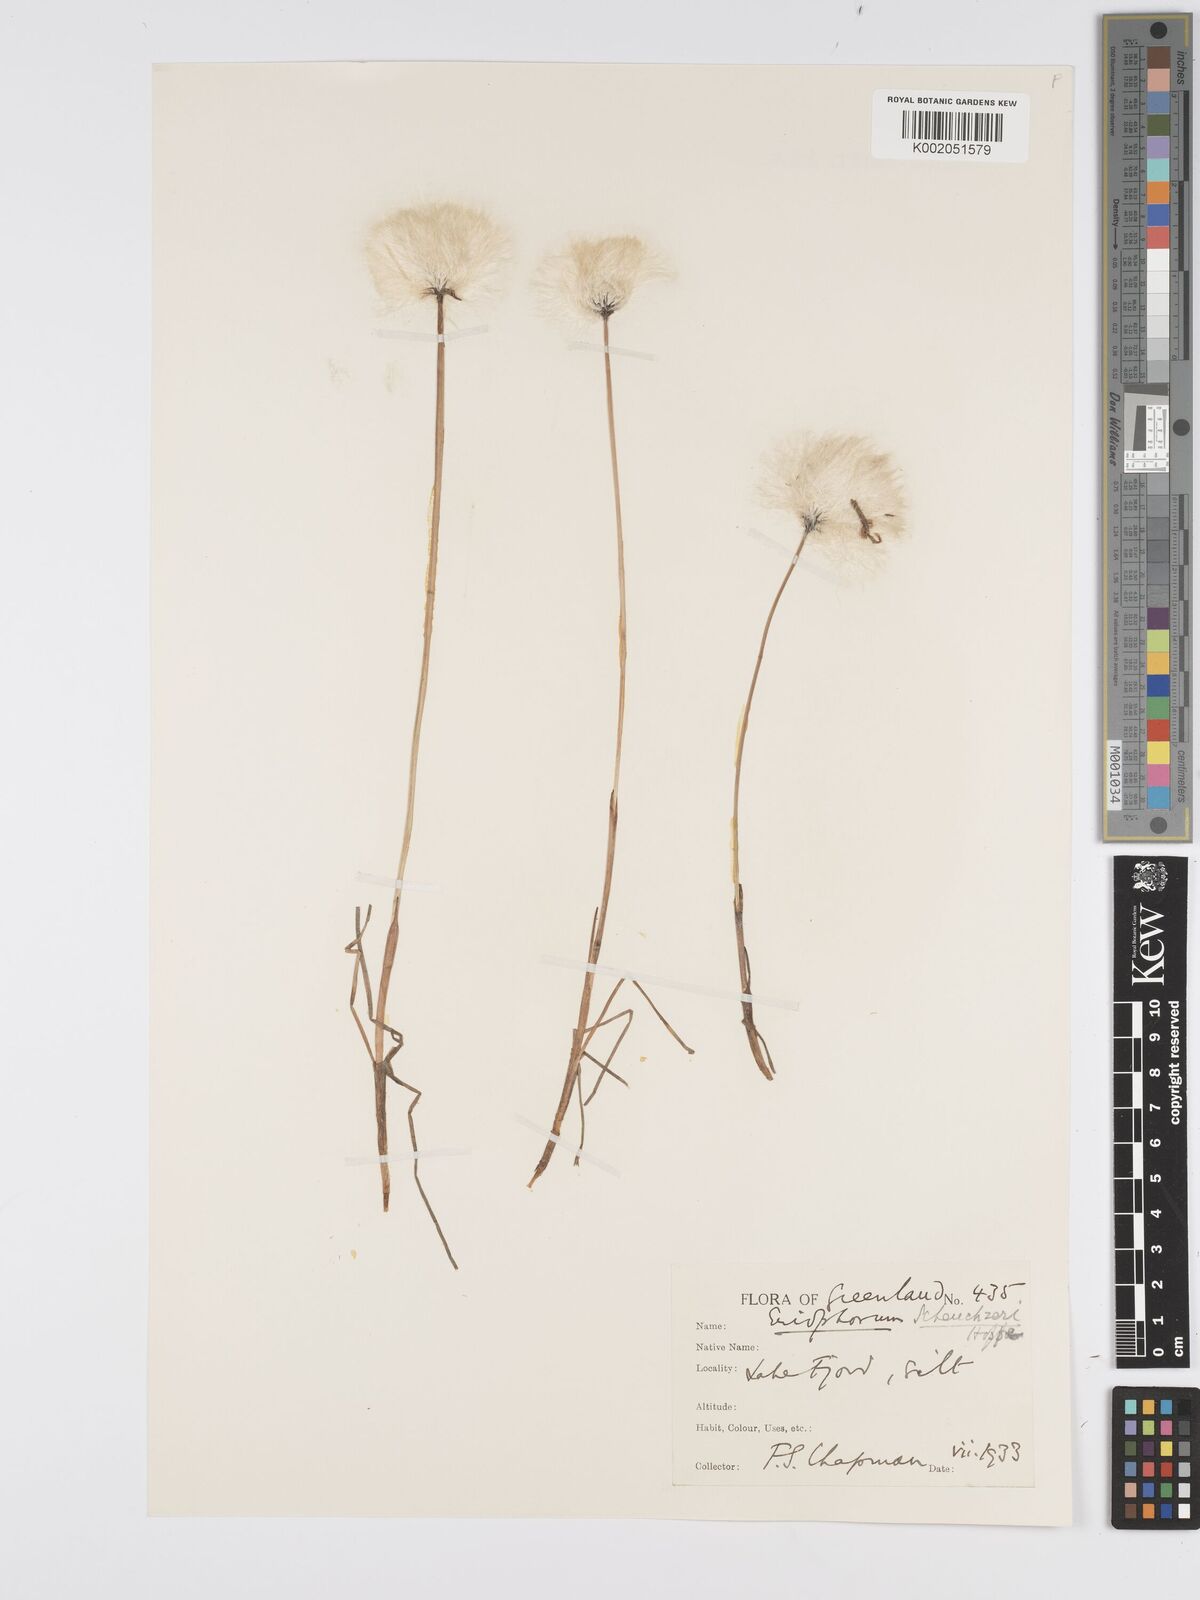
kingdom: Plantae
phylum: Tracheophyta
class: Liliopsida
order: Poales
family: Cyperaceae
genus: Eriophorum
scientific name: Eriophorum scheuchzeri
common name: Scheuchzer's cottongrass
